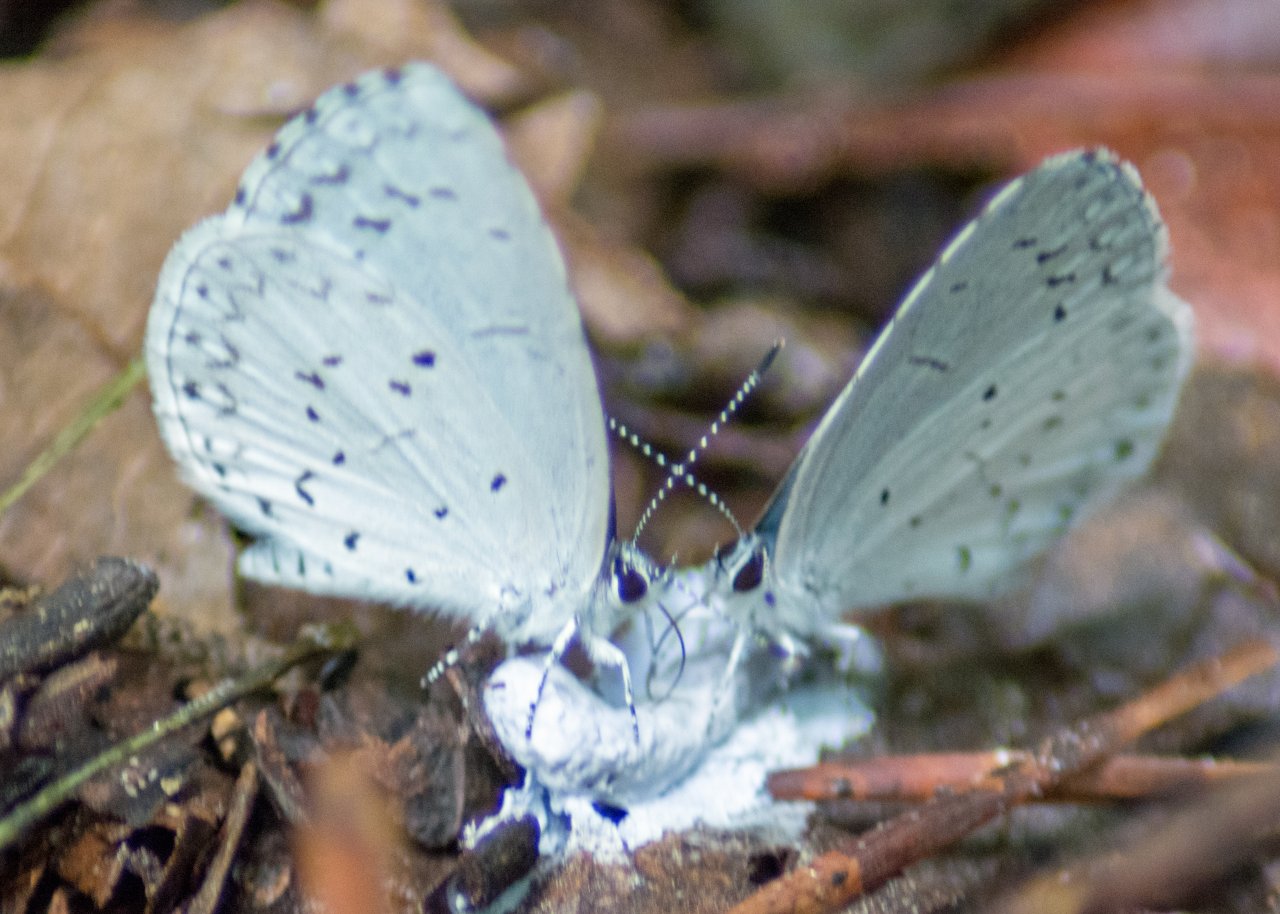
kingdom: Animalia
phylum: Arthropoda
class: Insecta
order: Lepidoptera
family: Lycaenidae
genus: Cyaniris
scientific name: Cyaniris neglecta
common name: Summer Azure
